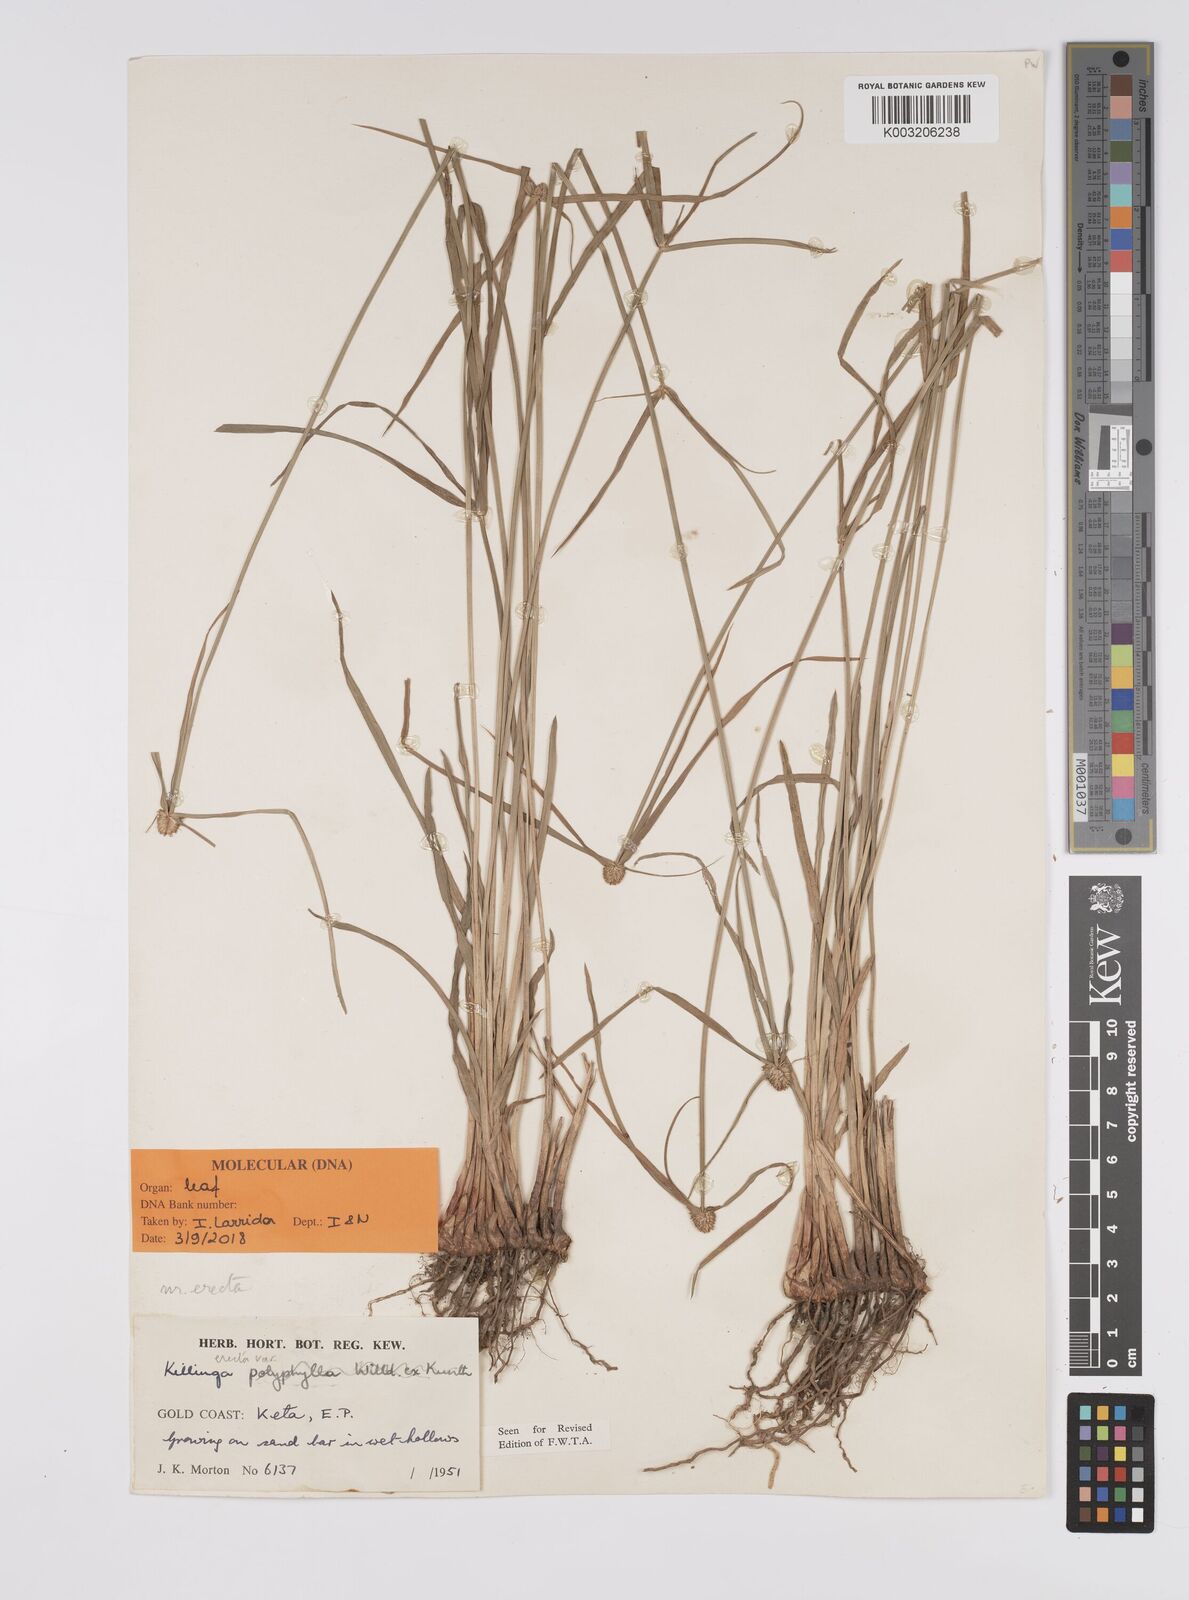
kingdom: Plantae
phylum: Tracheophyta
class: Liliopsida
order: Poales
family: Cyperaceae
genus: Cyperus
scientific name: Cyperus
